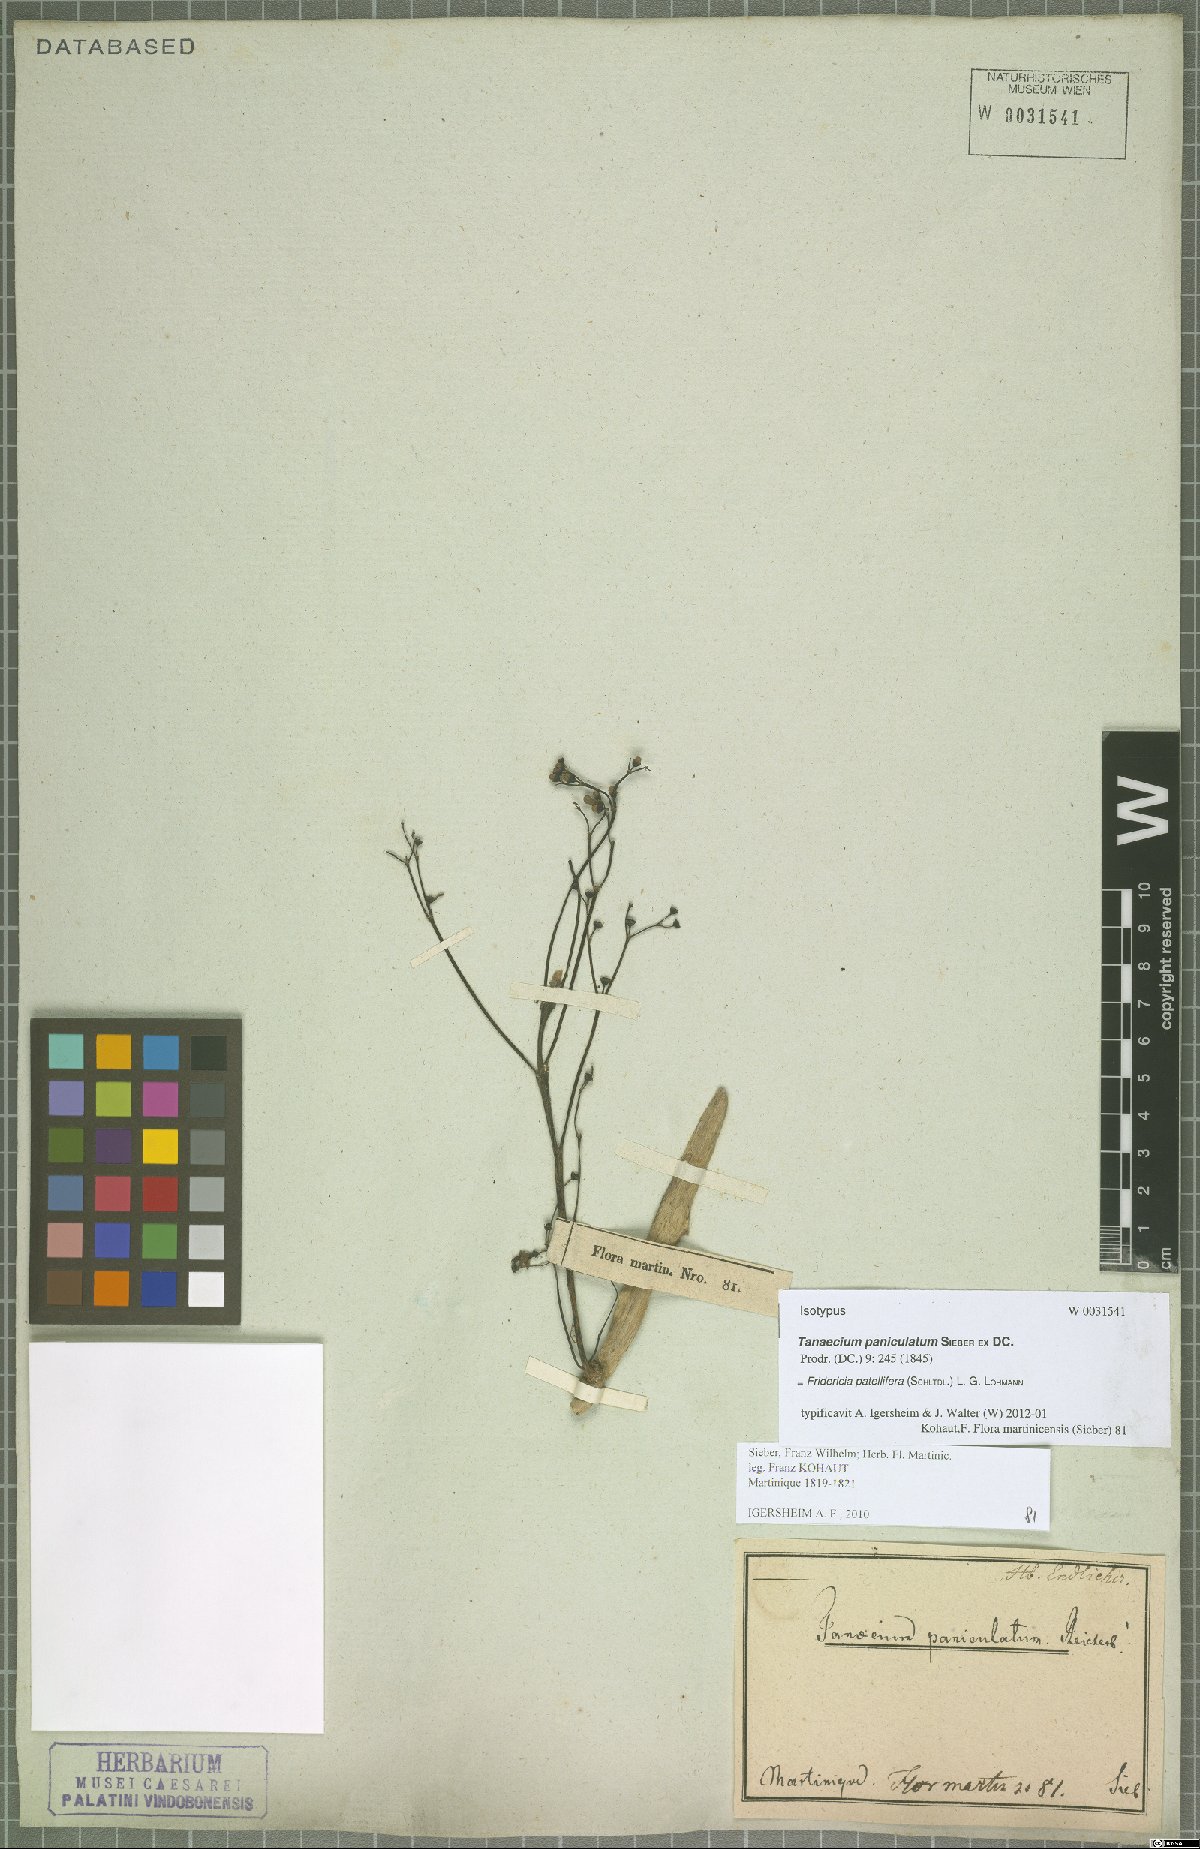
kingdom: Plantae
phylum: Tracheophyta
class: Magnoliopsida
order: Lamiales
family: Bignoniaceae
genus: Fridericia
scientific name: Fridericia patellifera
